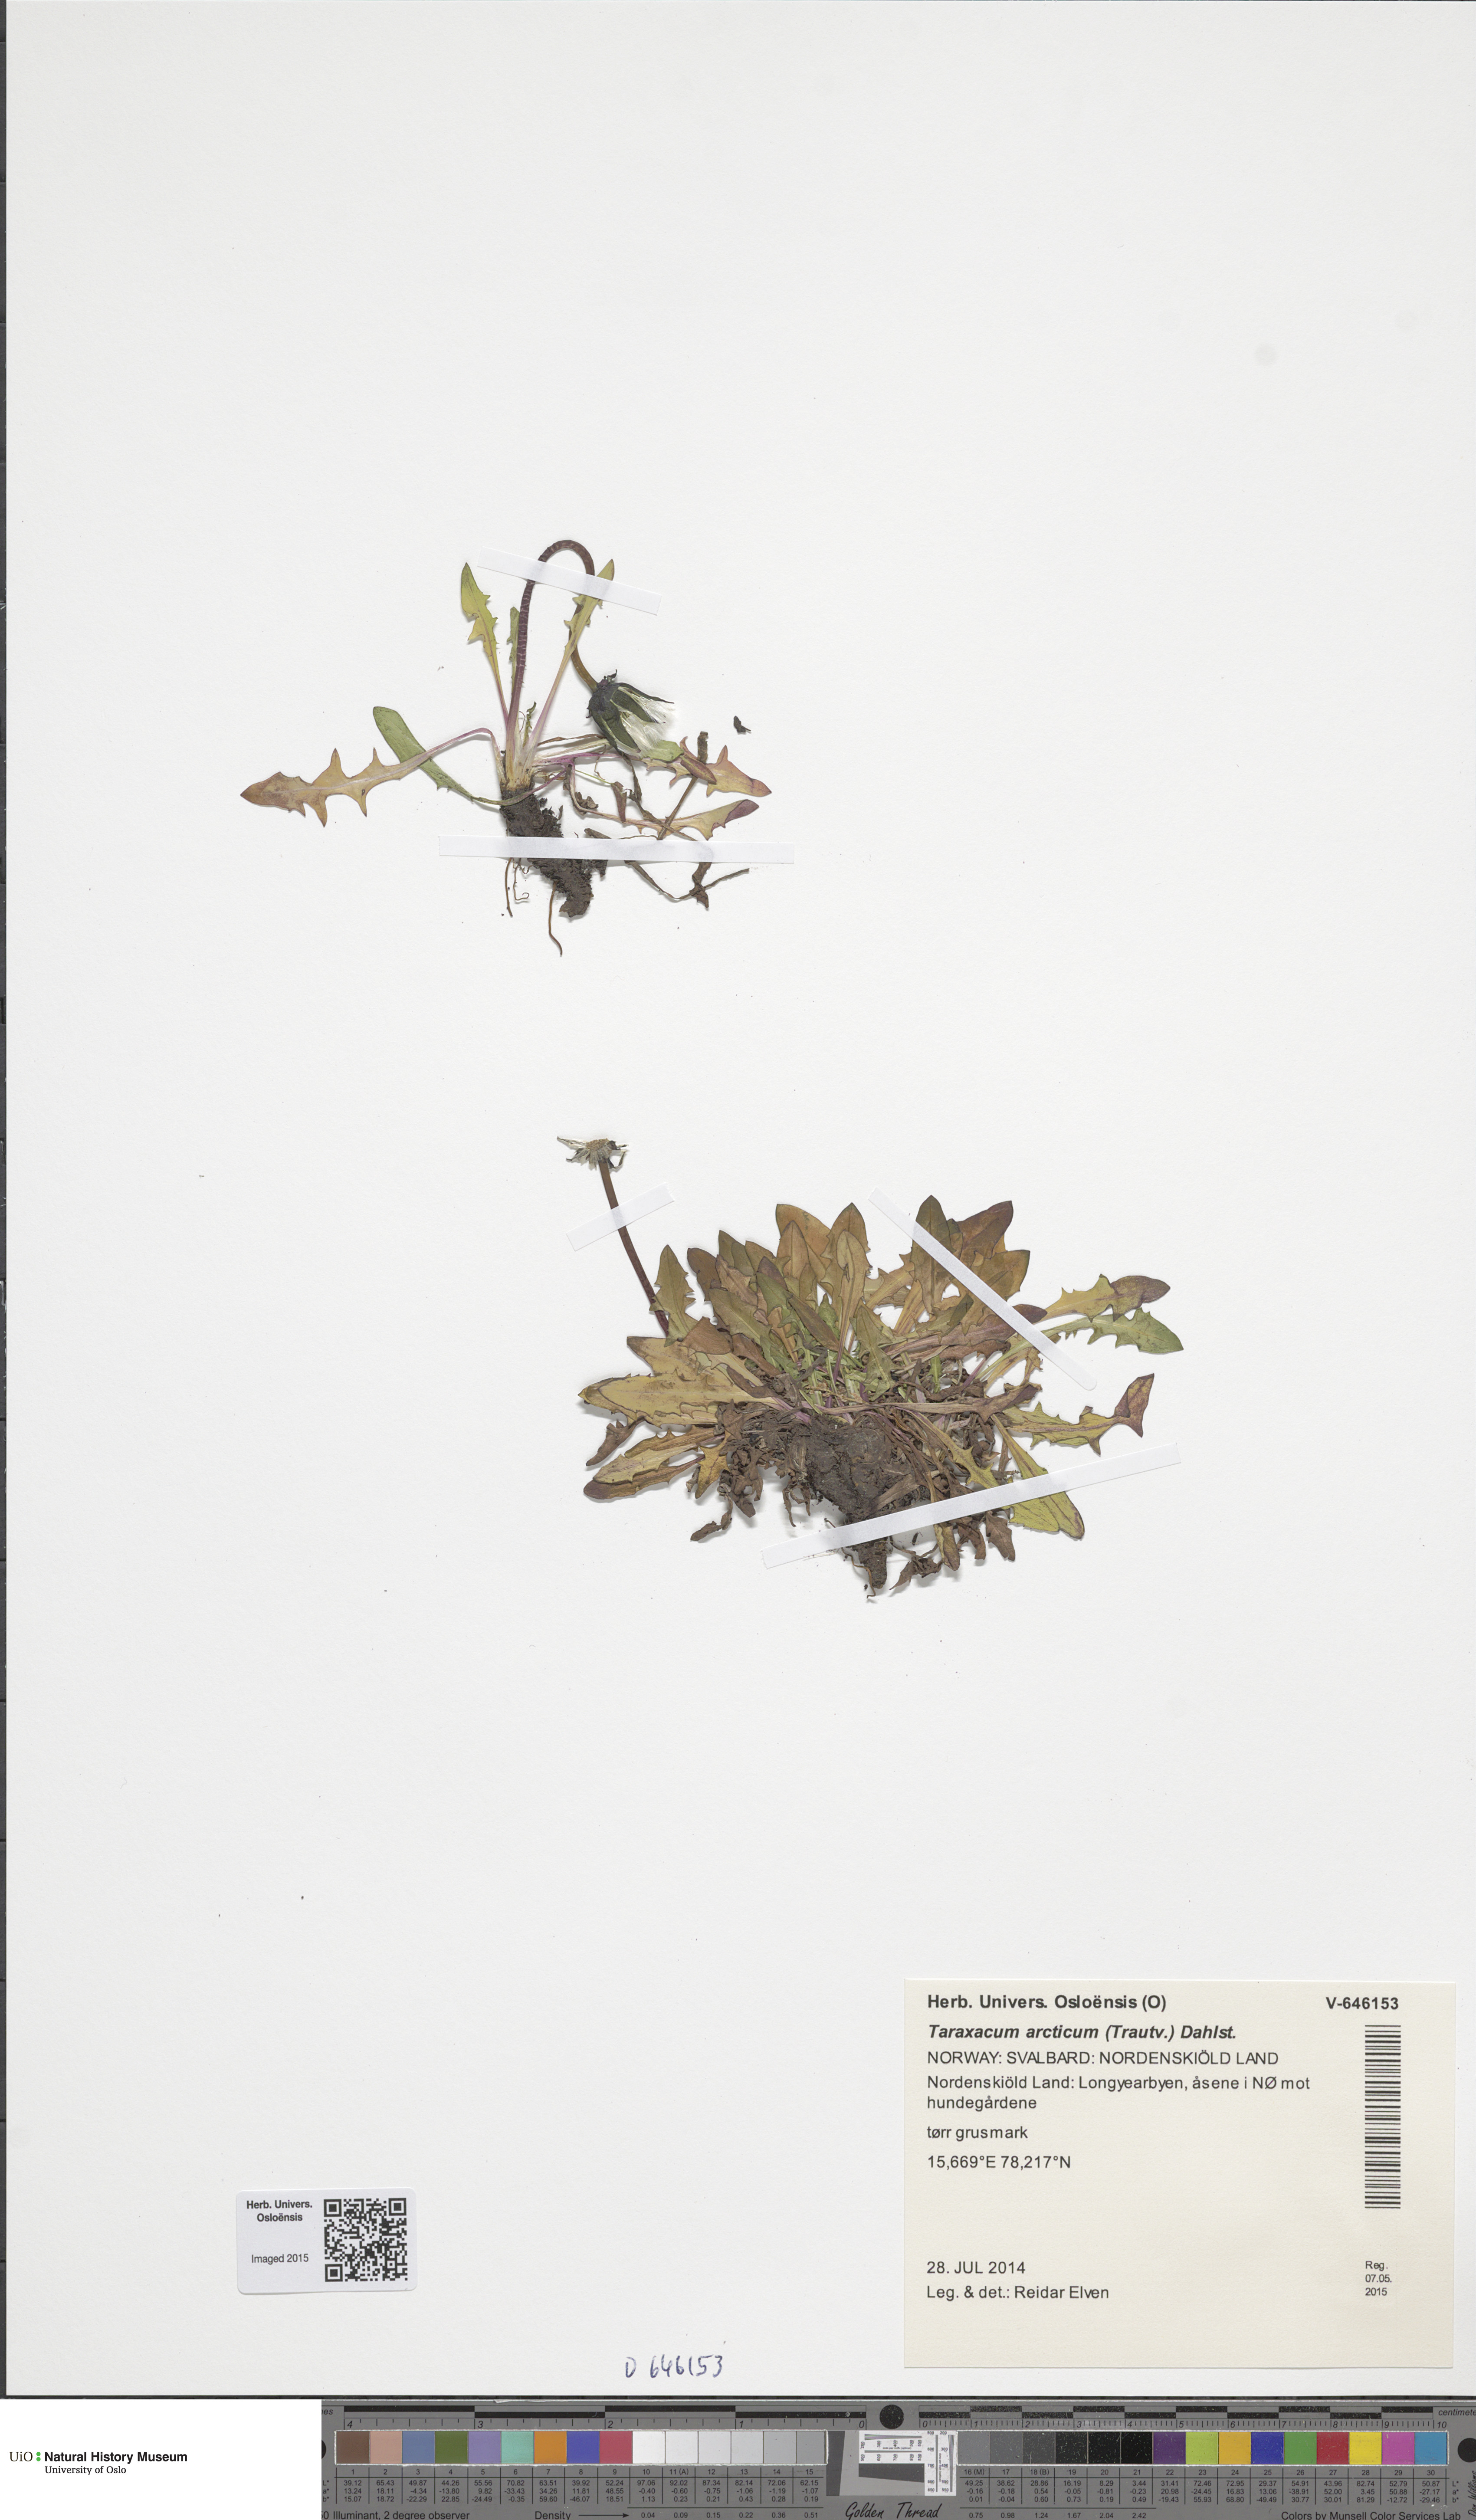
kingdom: Plantae
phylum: Tracheophyta
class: Magnoliopsida
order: Asterales
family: Asteraceae
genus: Taraxacum
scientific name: Taraxacum arcticum
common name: Arctic dandelion
